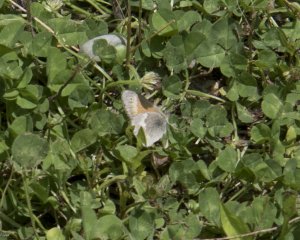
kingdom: Animalia
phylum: Arthropoda
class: Insecta
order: Lepidoptera
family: Nymphalidae
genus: Coenonympha
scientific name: Coenonympha tullia
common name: Large Heath
